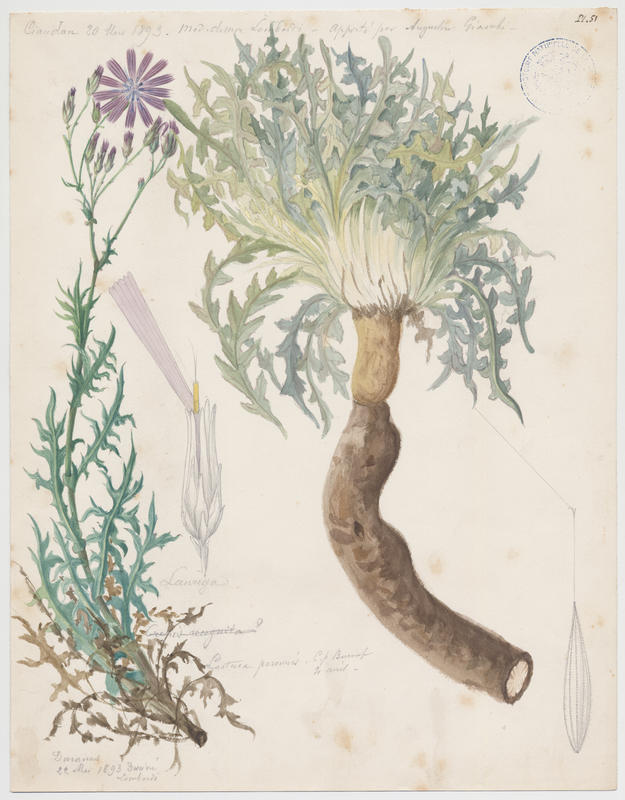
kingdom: Plantae
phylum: Tracheophyta
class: Magnoliopsida
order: Asterales
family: Asteraceae
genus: Lactuca
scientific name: Lactuca perennis
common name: Mountain lettuce
